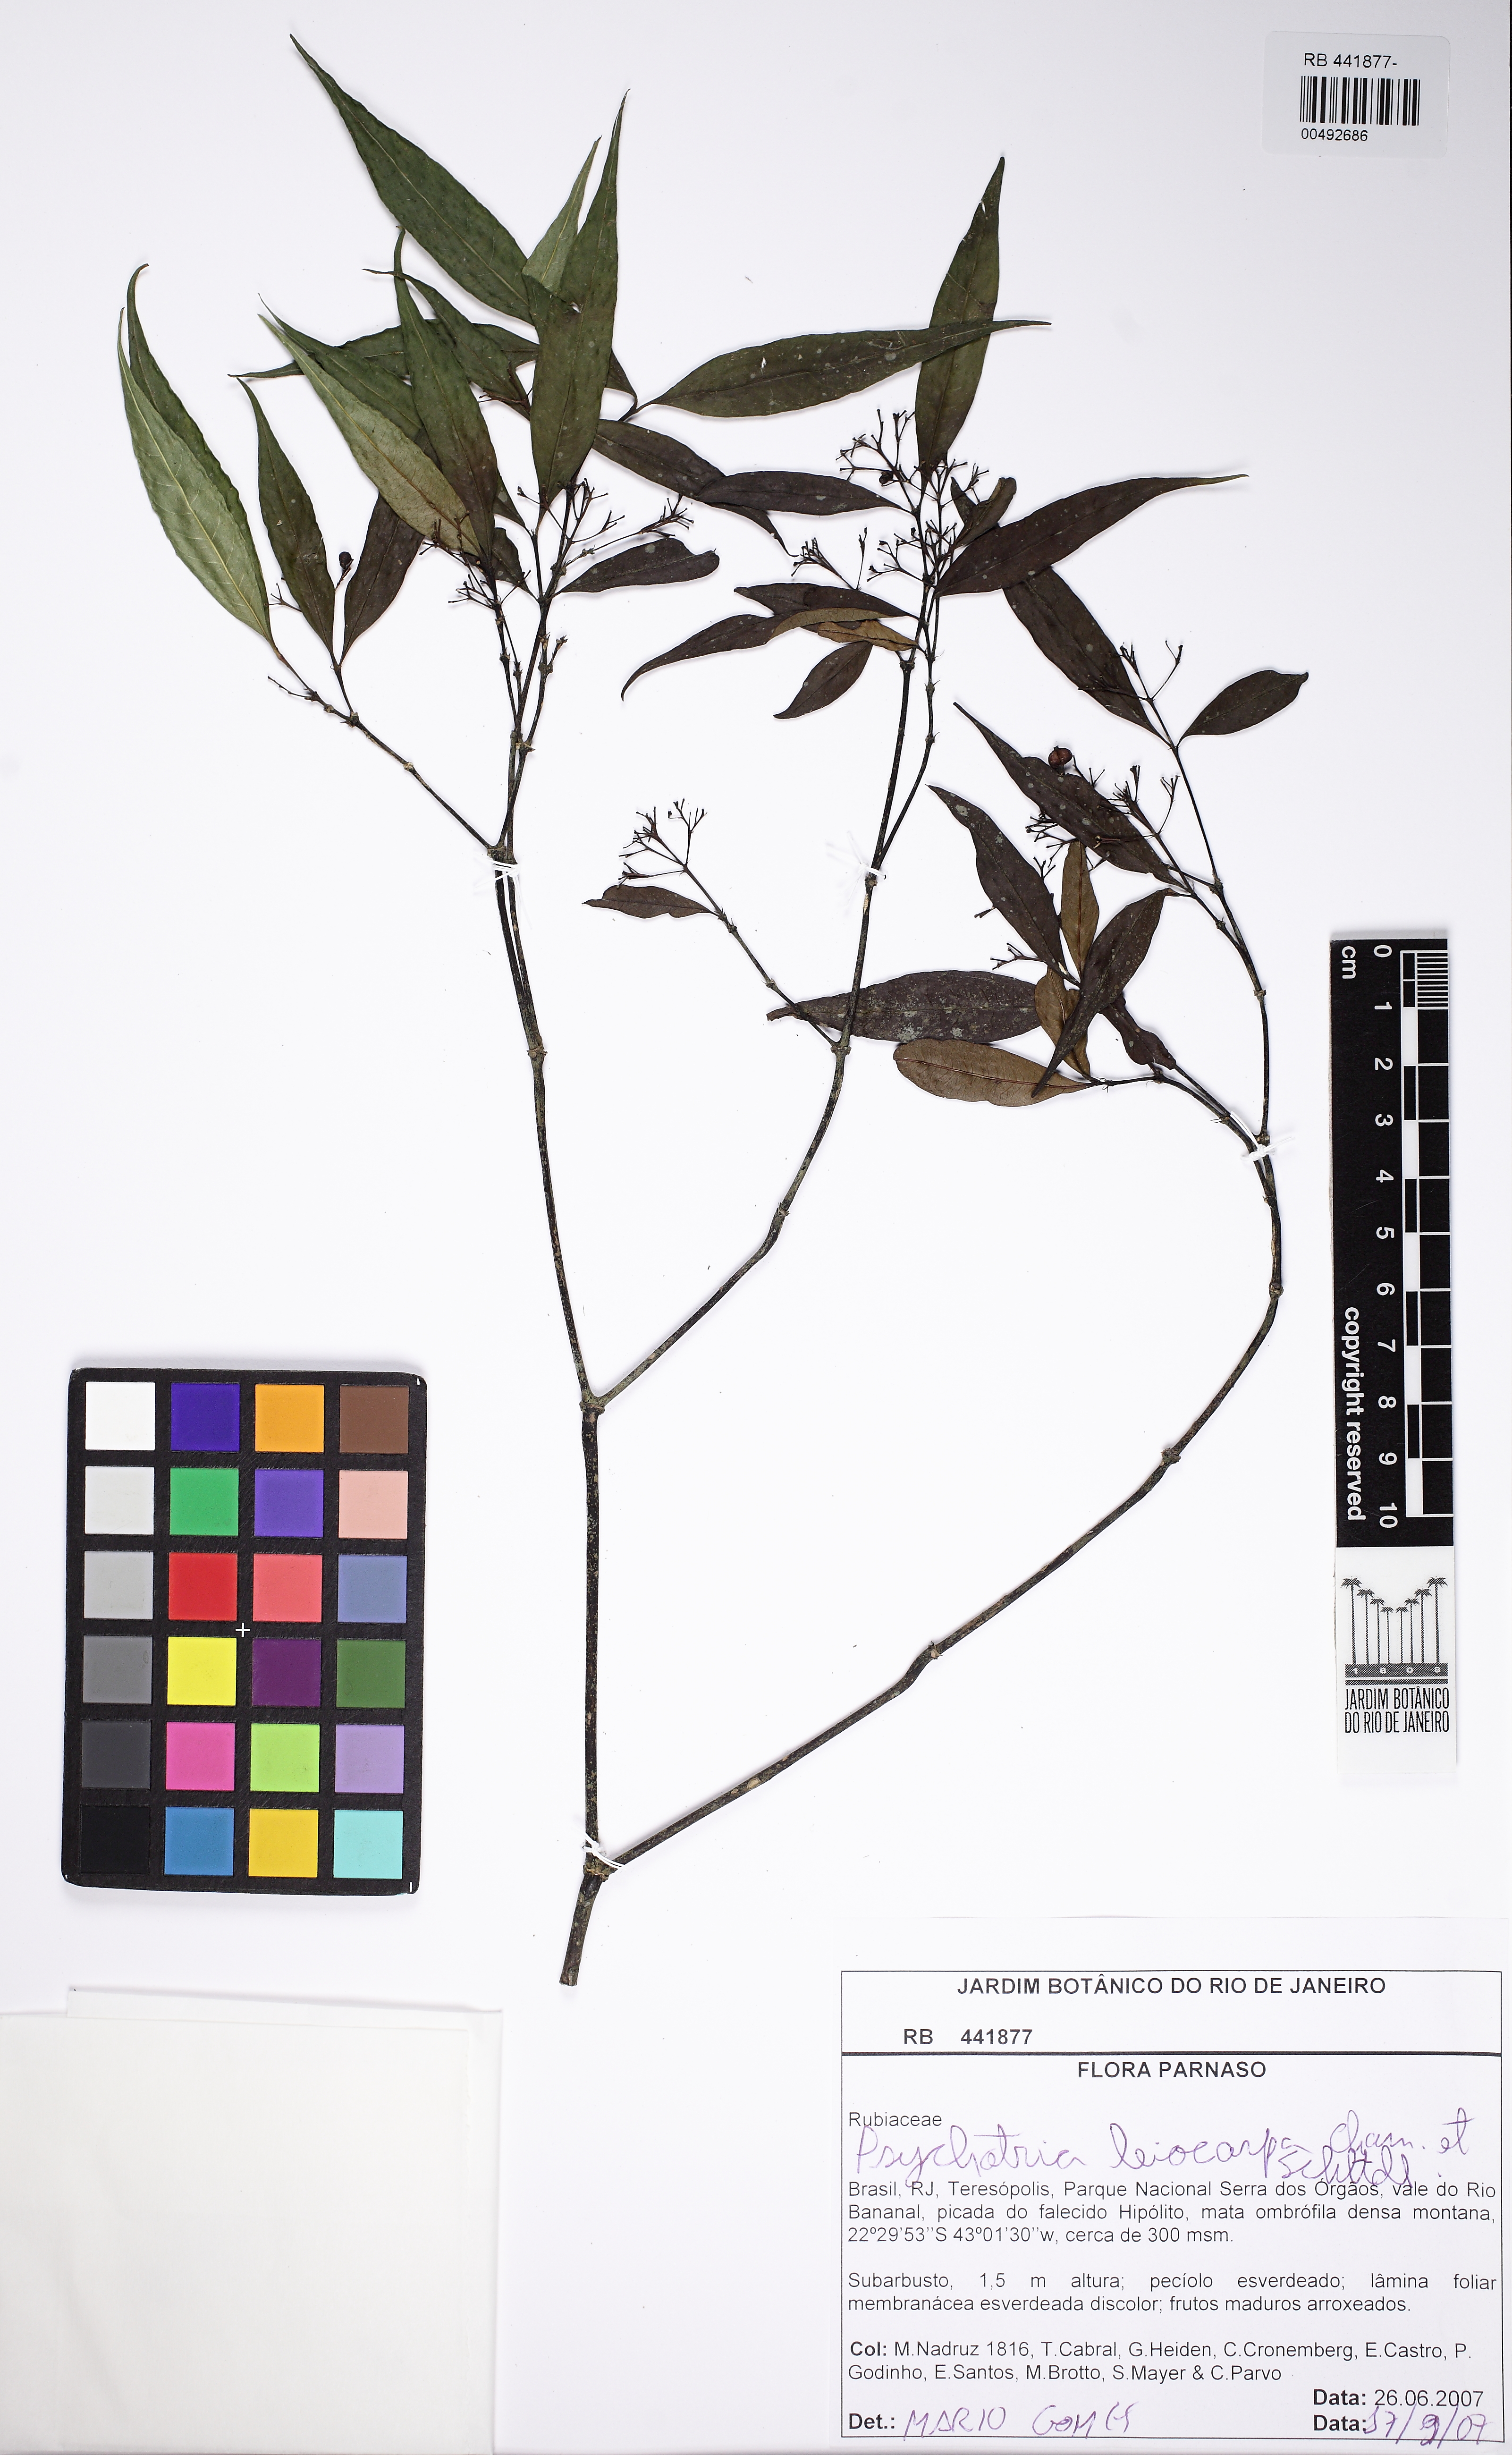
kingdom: Plantae
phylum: Tracheophyta
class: Magnoliopsida
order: Gentianales
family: Rubiaceae
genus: Psychotria
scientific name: Psychotria leiocarpa
